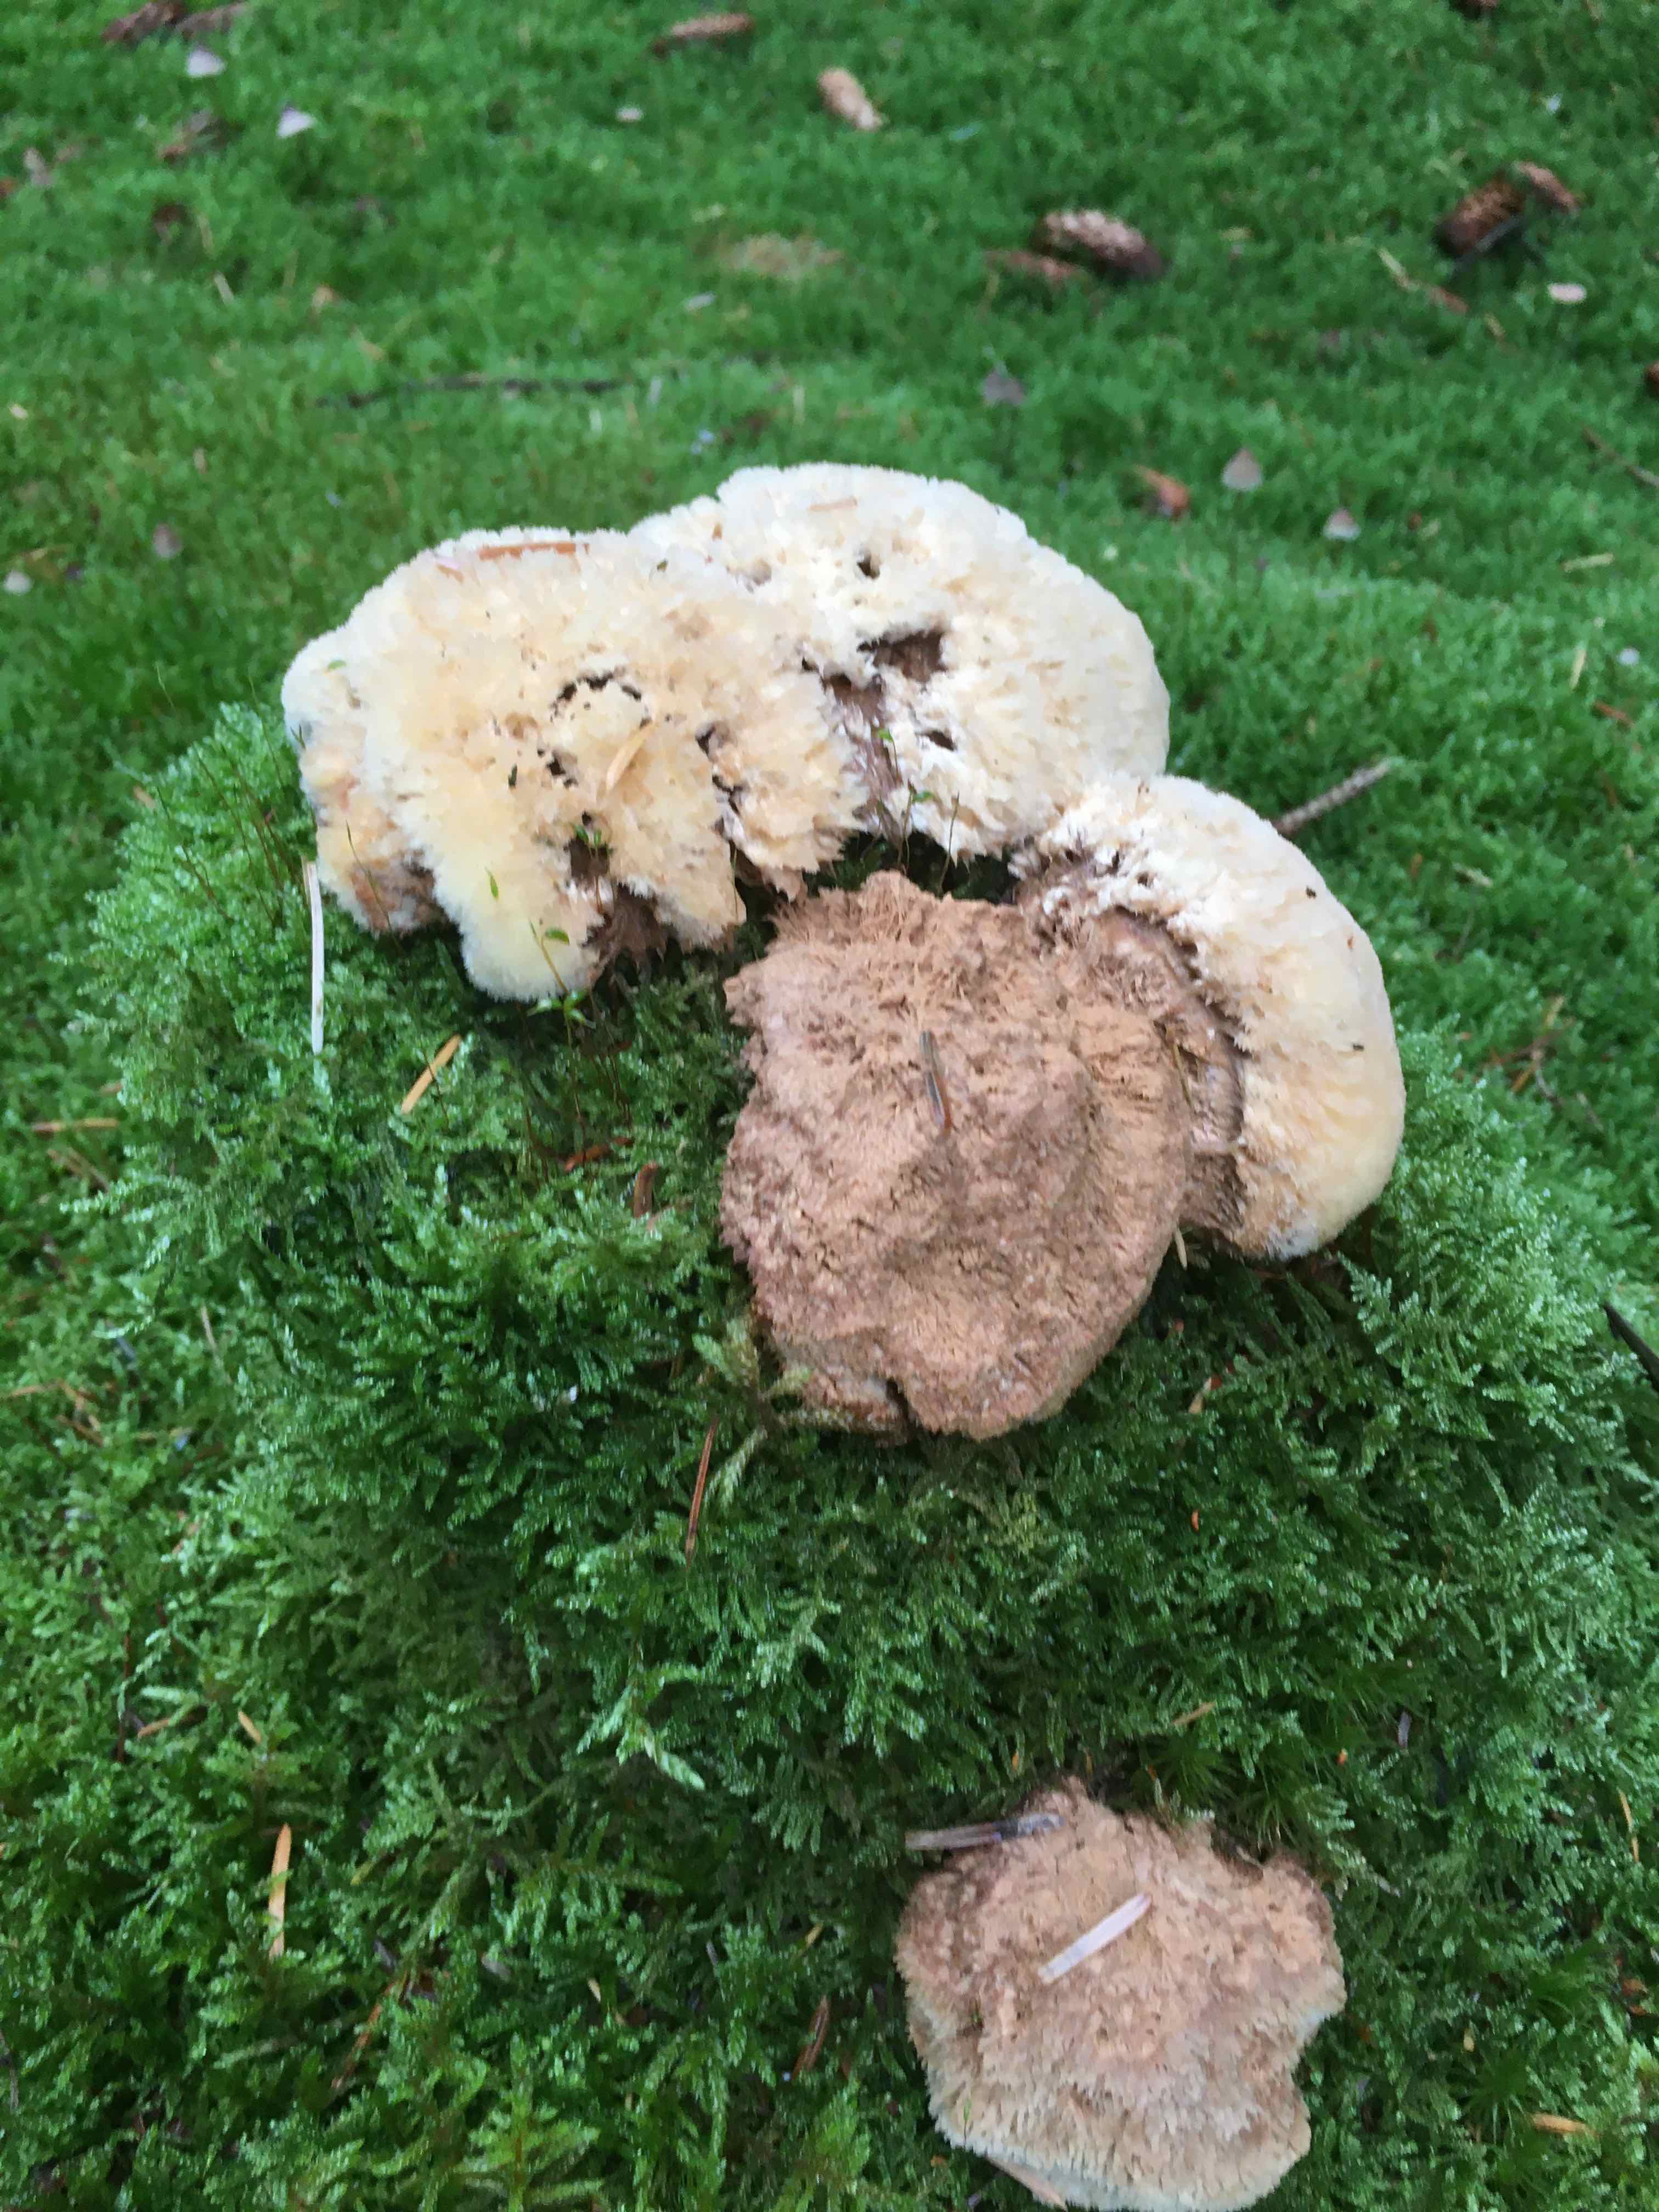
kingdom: Fungi
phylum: Basidiomycota
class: Agaricomycetes
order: Polyporales
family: Dacryobolaceae
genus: Postia
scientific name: Postia ptychogaster
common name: støvende kødporesvamp
